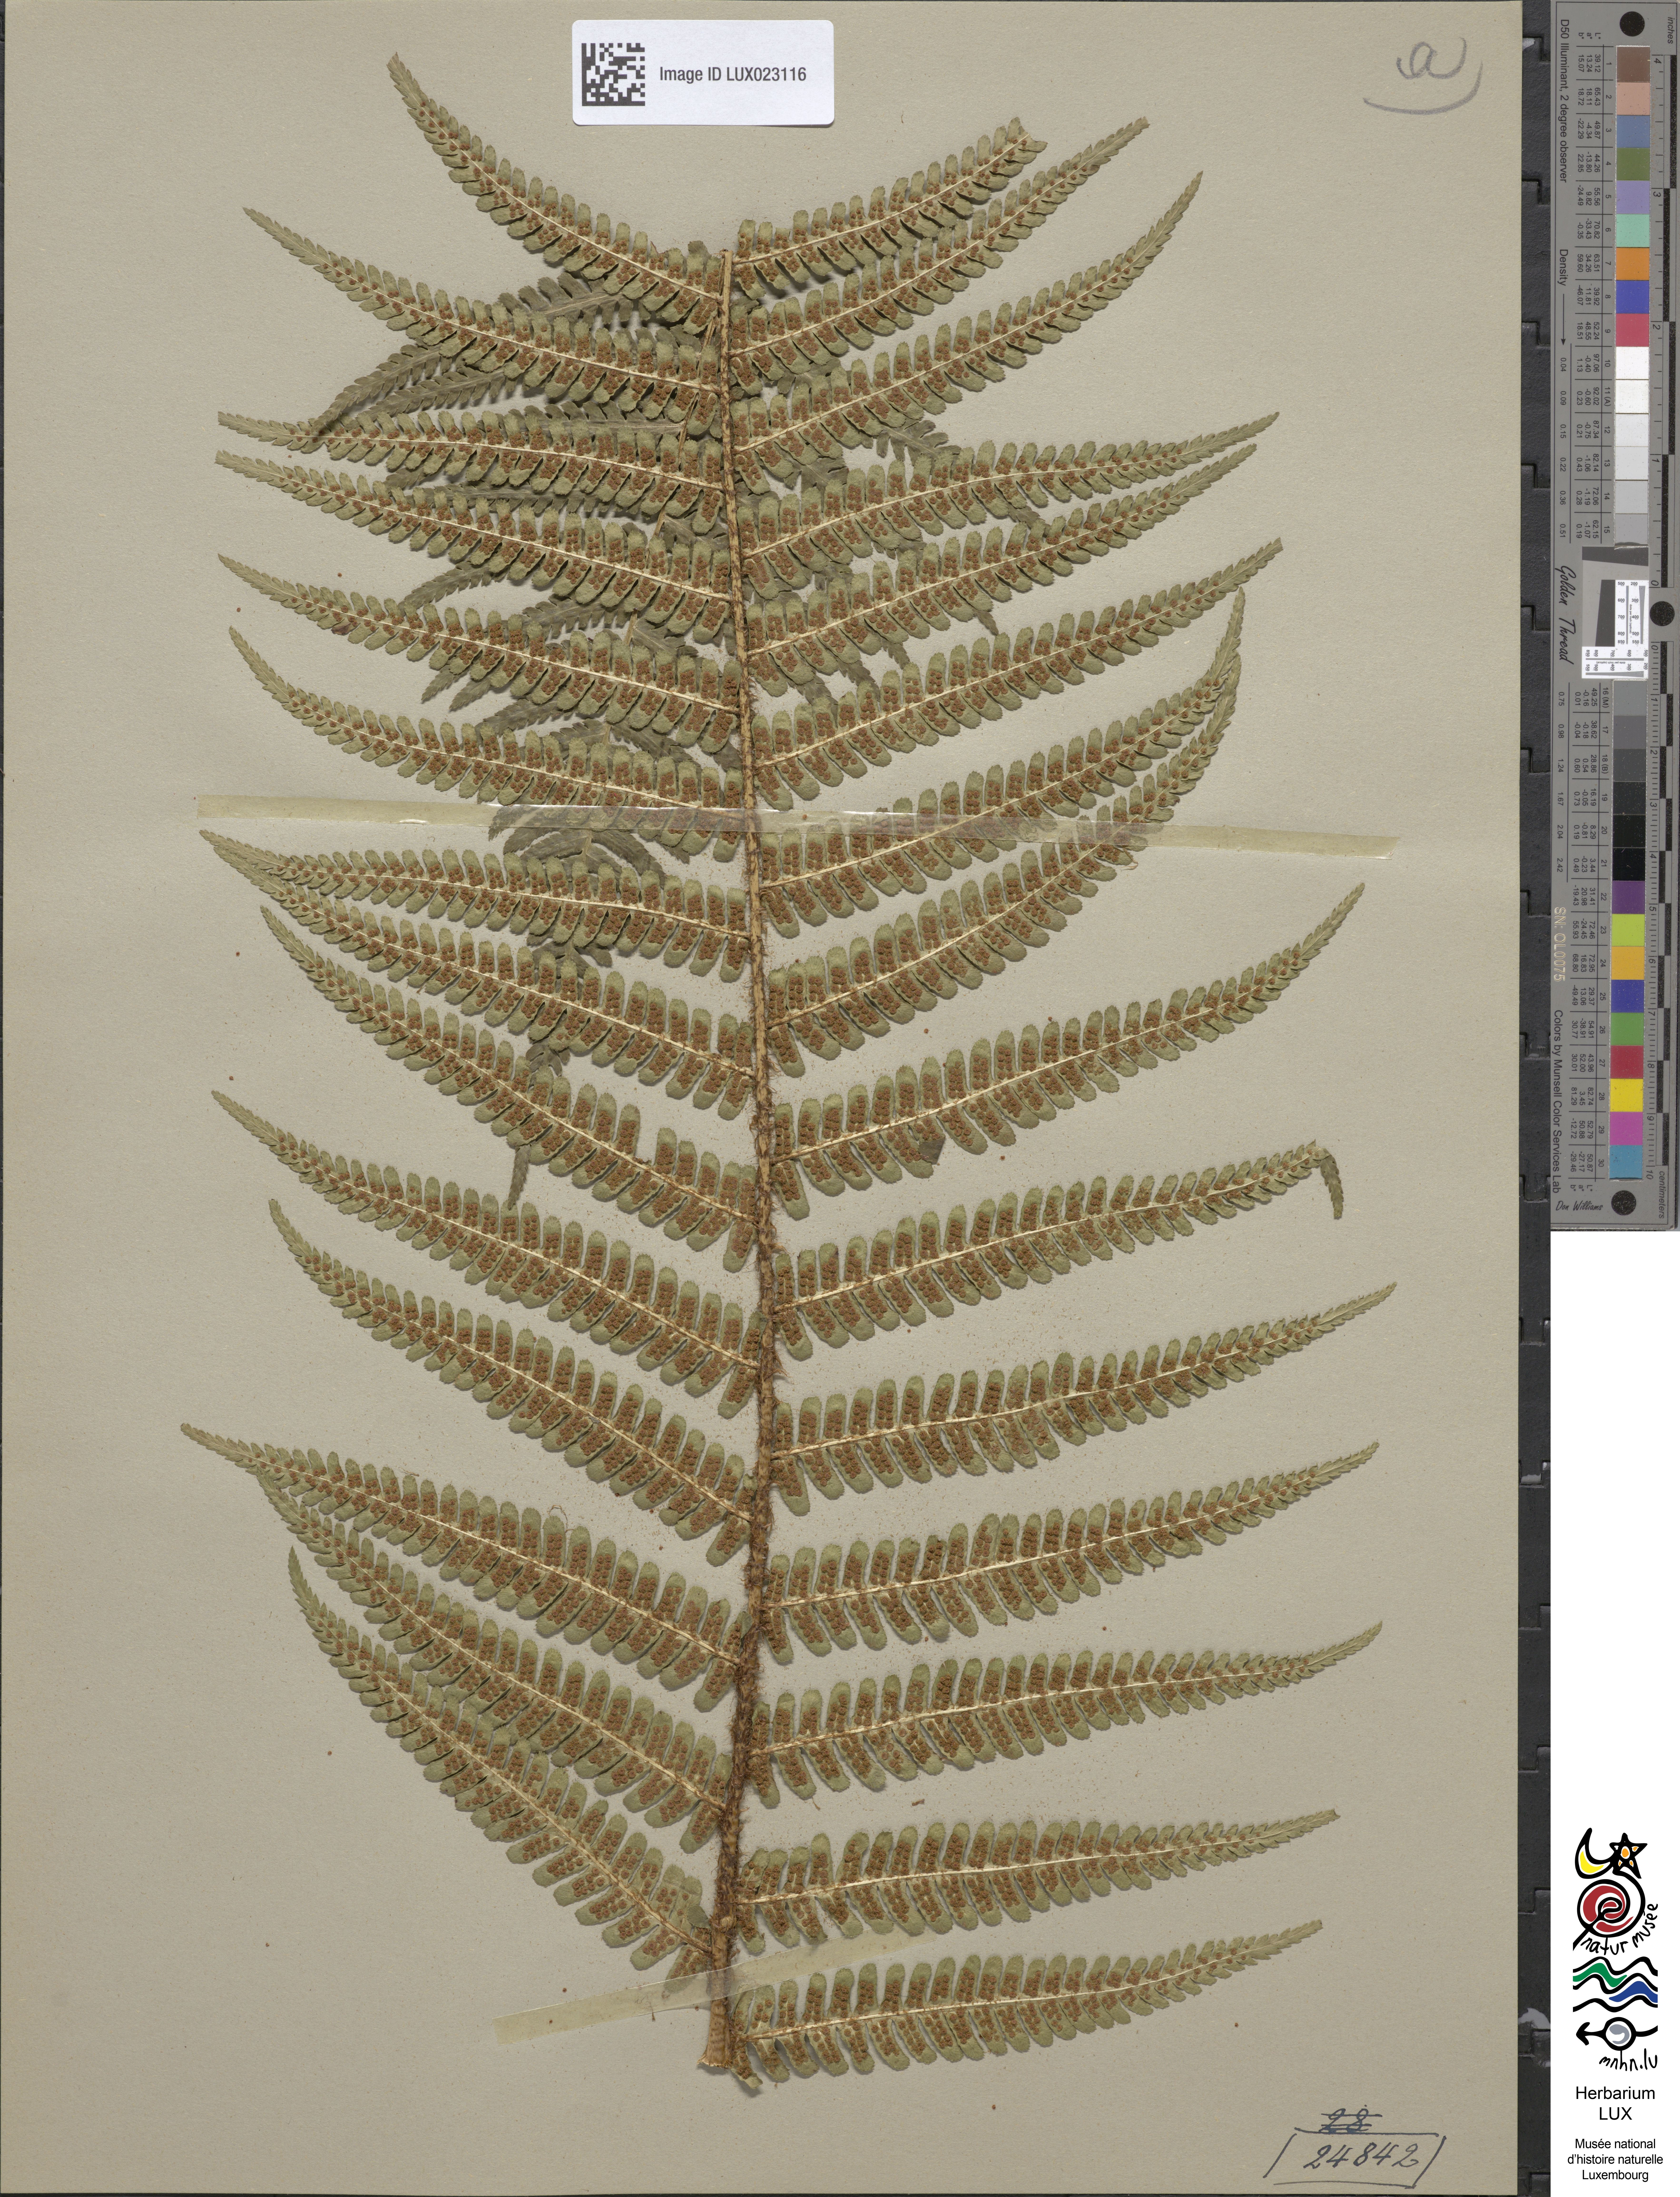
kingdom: Plantae
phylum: Tracheophyta
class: Polypodiopsida
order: Polypodiales
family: Dryopteridaceae
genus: Dryopteris
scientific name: Dryopteris borreri
